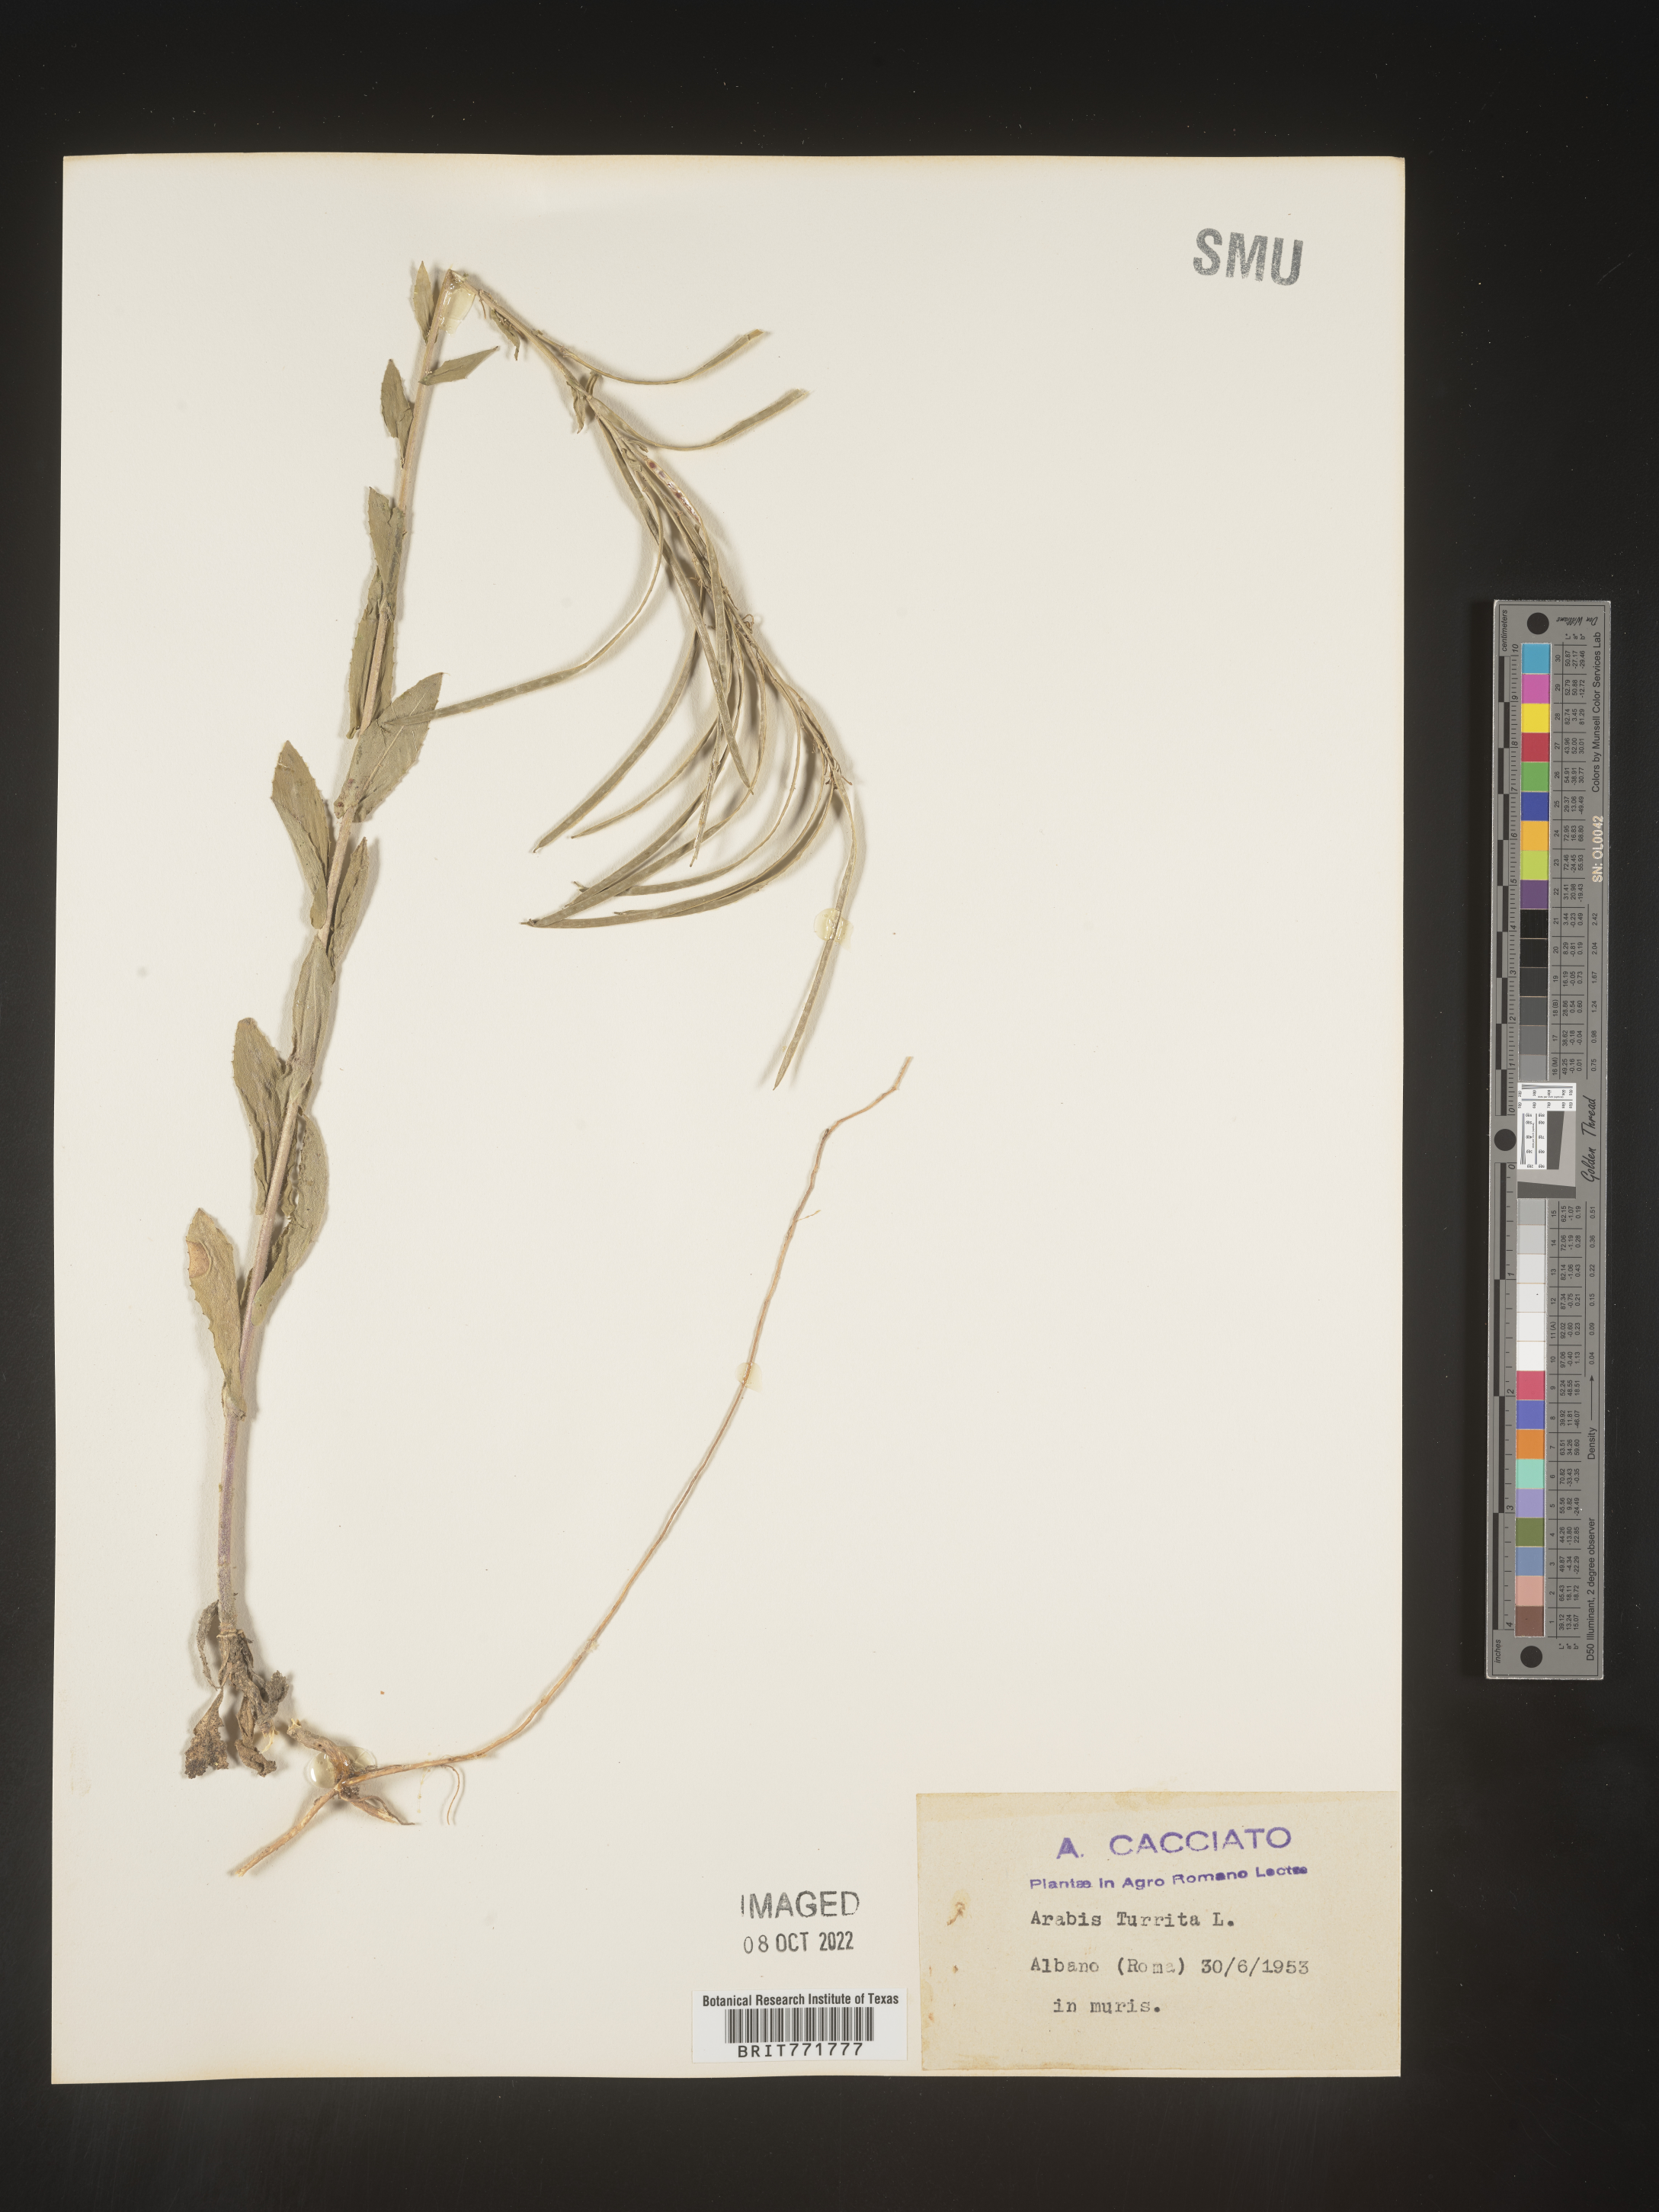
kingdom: Plantae
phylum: Tracheophyta
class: Magnoliopsida
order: Brassicales
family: Brassicaceae
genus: Arabis
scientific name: Arabis
